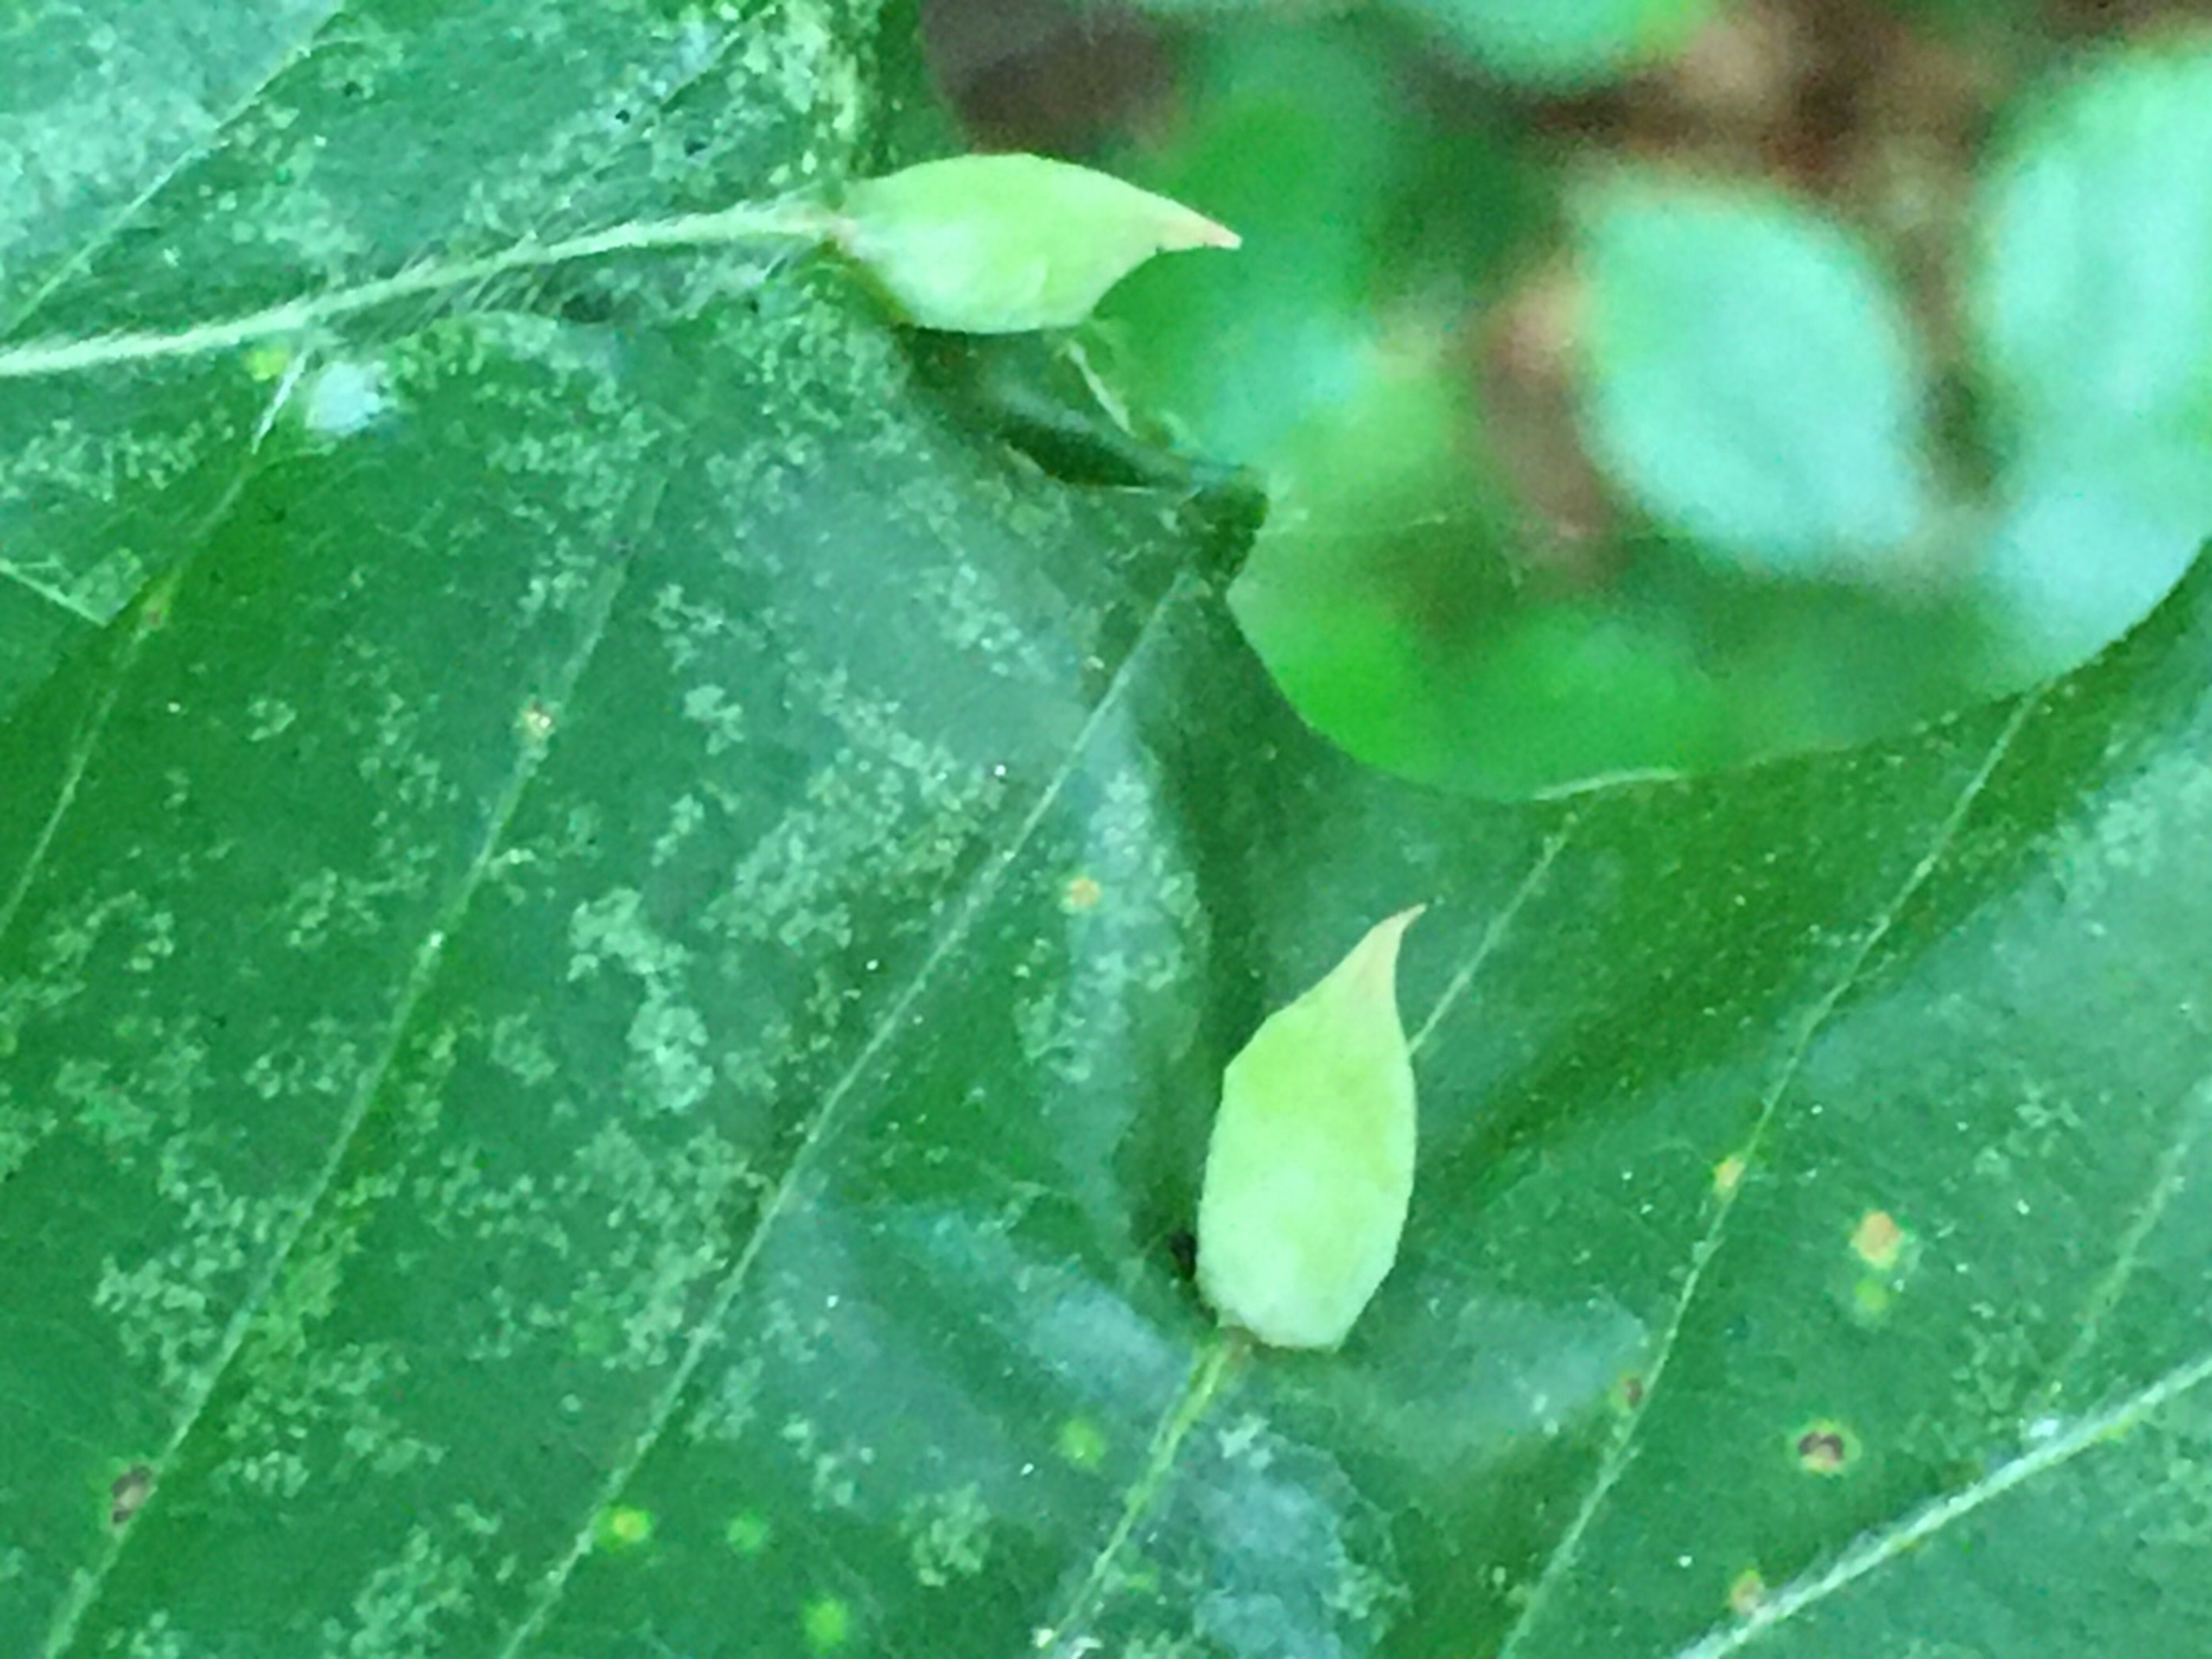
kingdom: Animalia
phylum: Arthropoda
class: Insecta
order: Diptera
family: Cecidomyiidae
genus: Mikiola
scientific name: Mikiola fagi
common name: Bøgegalmyg
